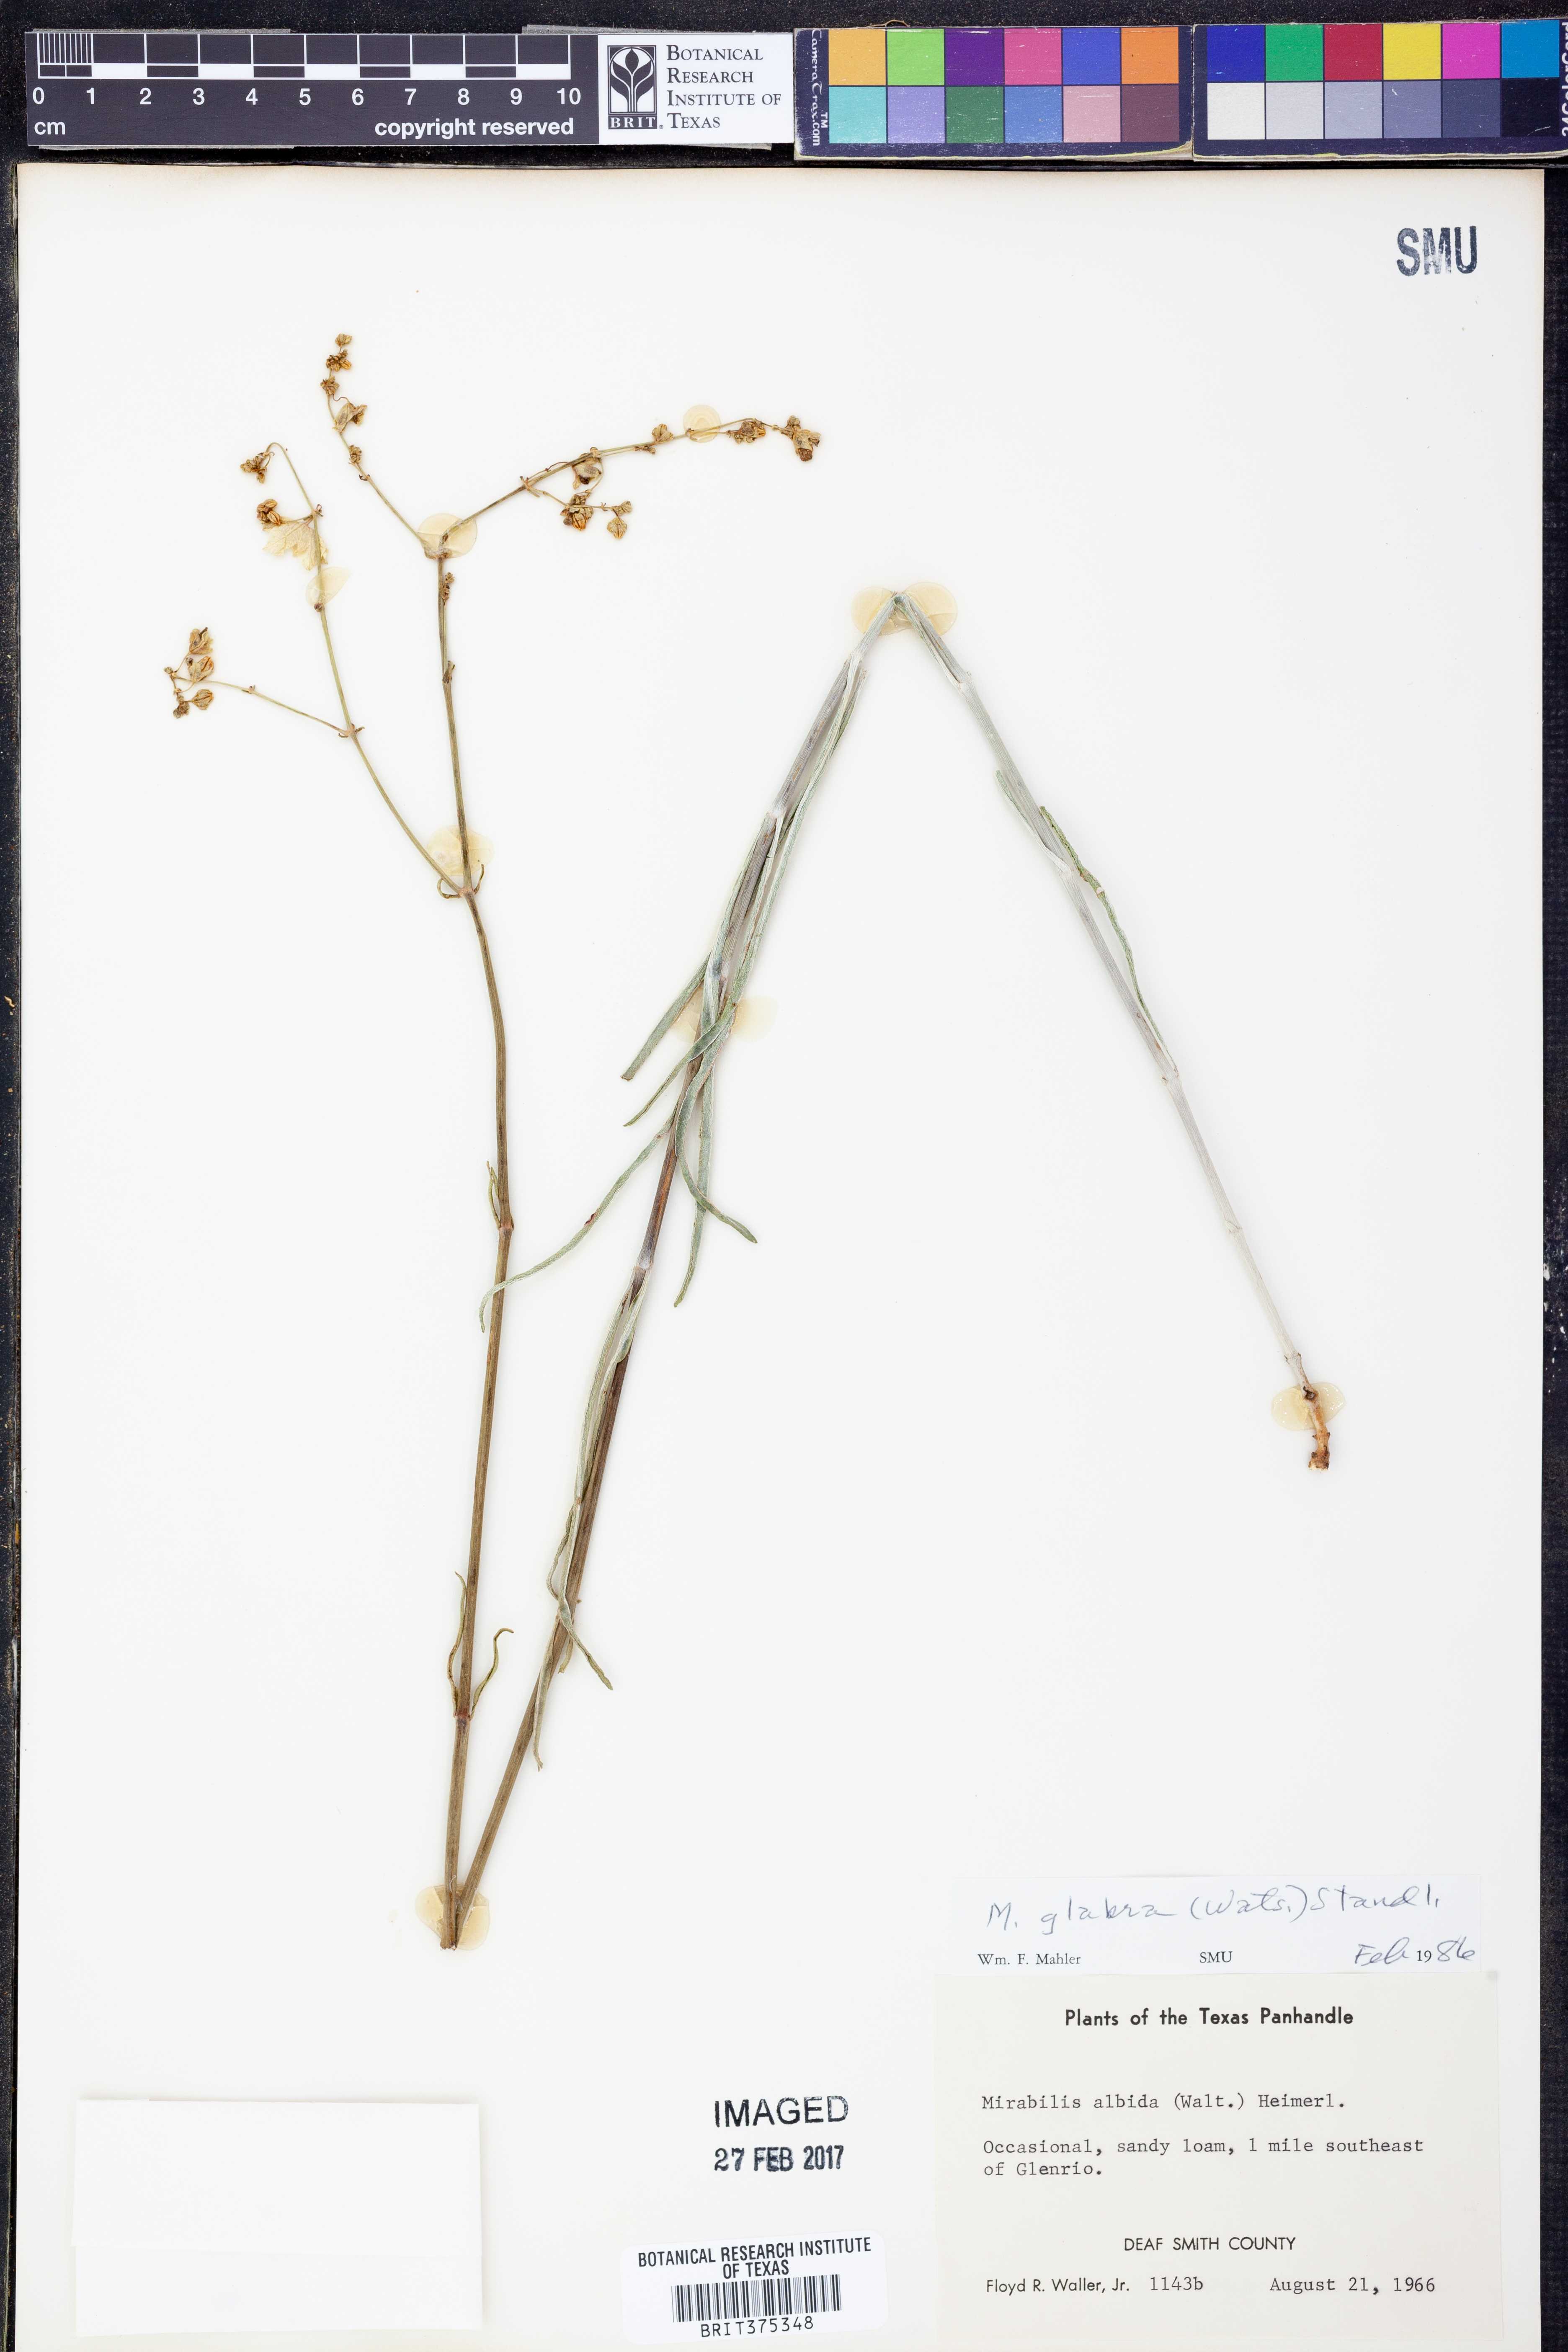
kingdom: Plantae
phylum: Tracheophyta
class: Magnoliopsida
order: Caryophyllales
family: Nyctaginaceae
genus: Mirabilis
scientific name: Mirabilis glabra
